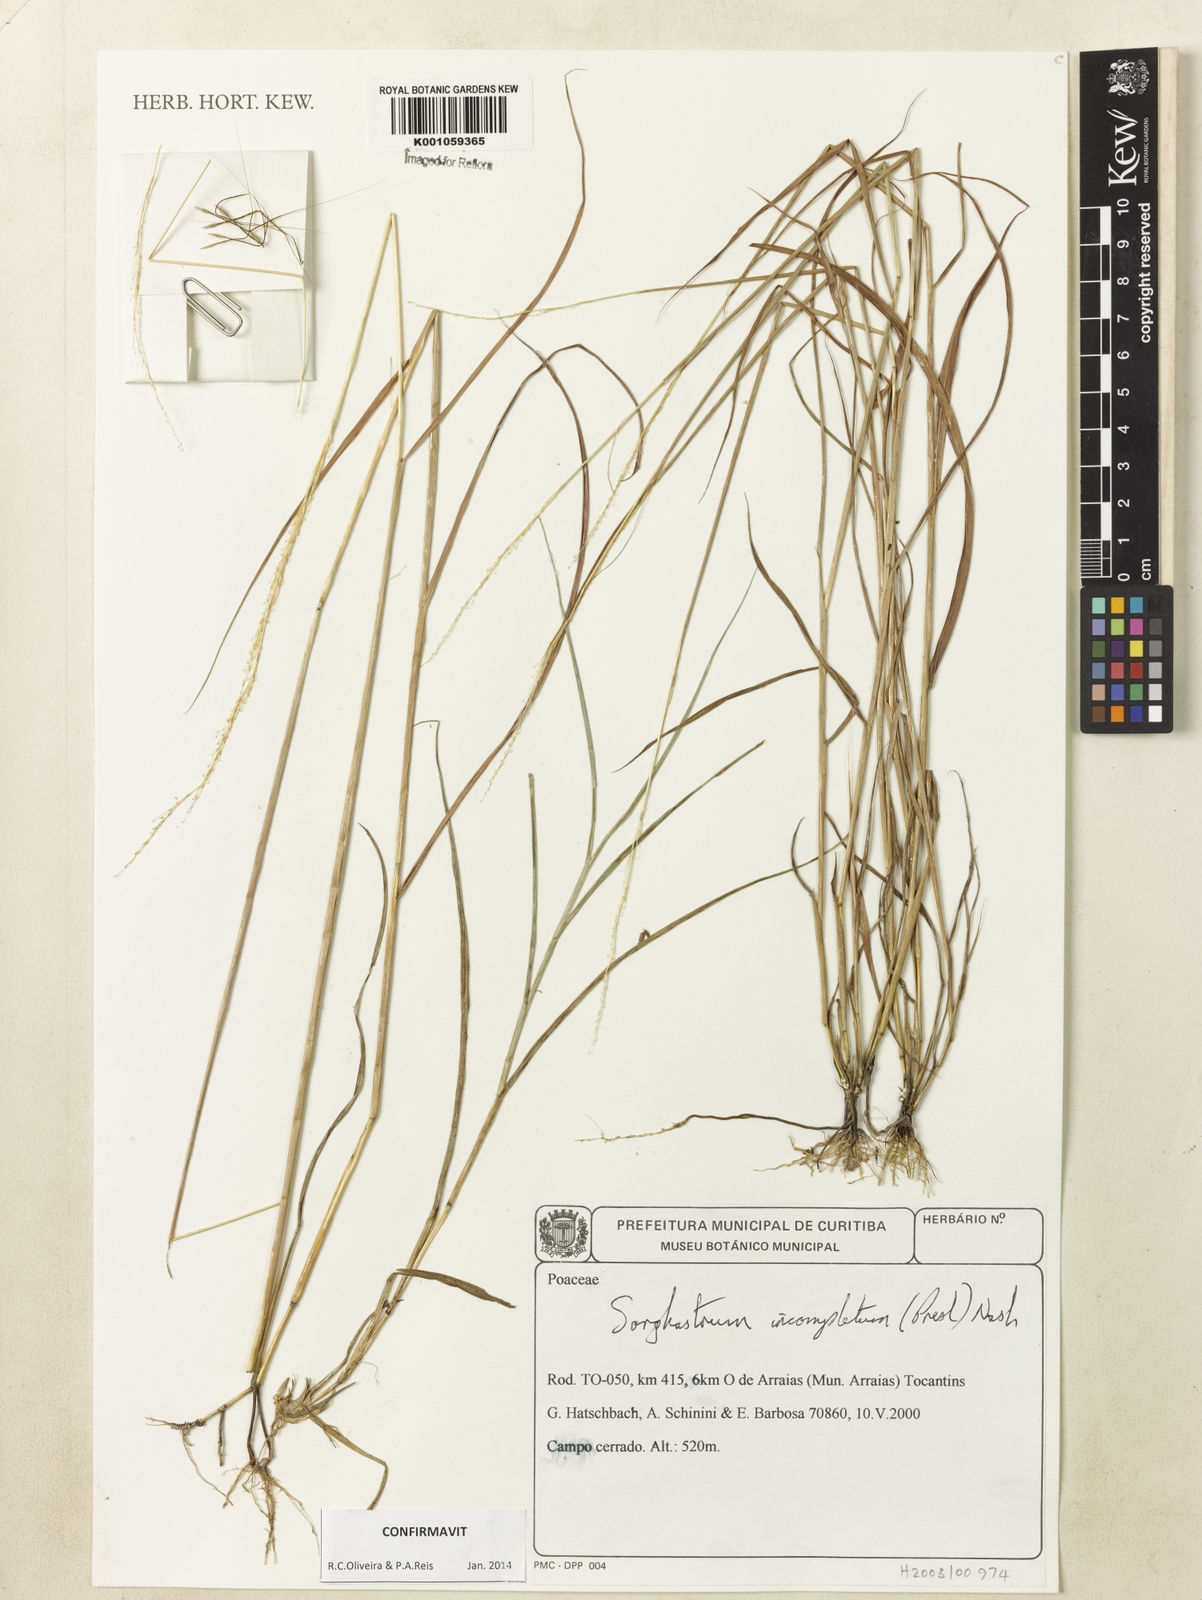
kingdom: Plantae
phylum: Tracheophyta
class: Liliopsida
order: Poales
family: Poaceae
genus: Sorghastrum
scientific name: Sorghastrum incompletum
